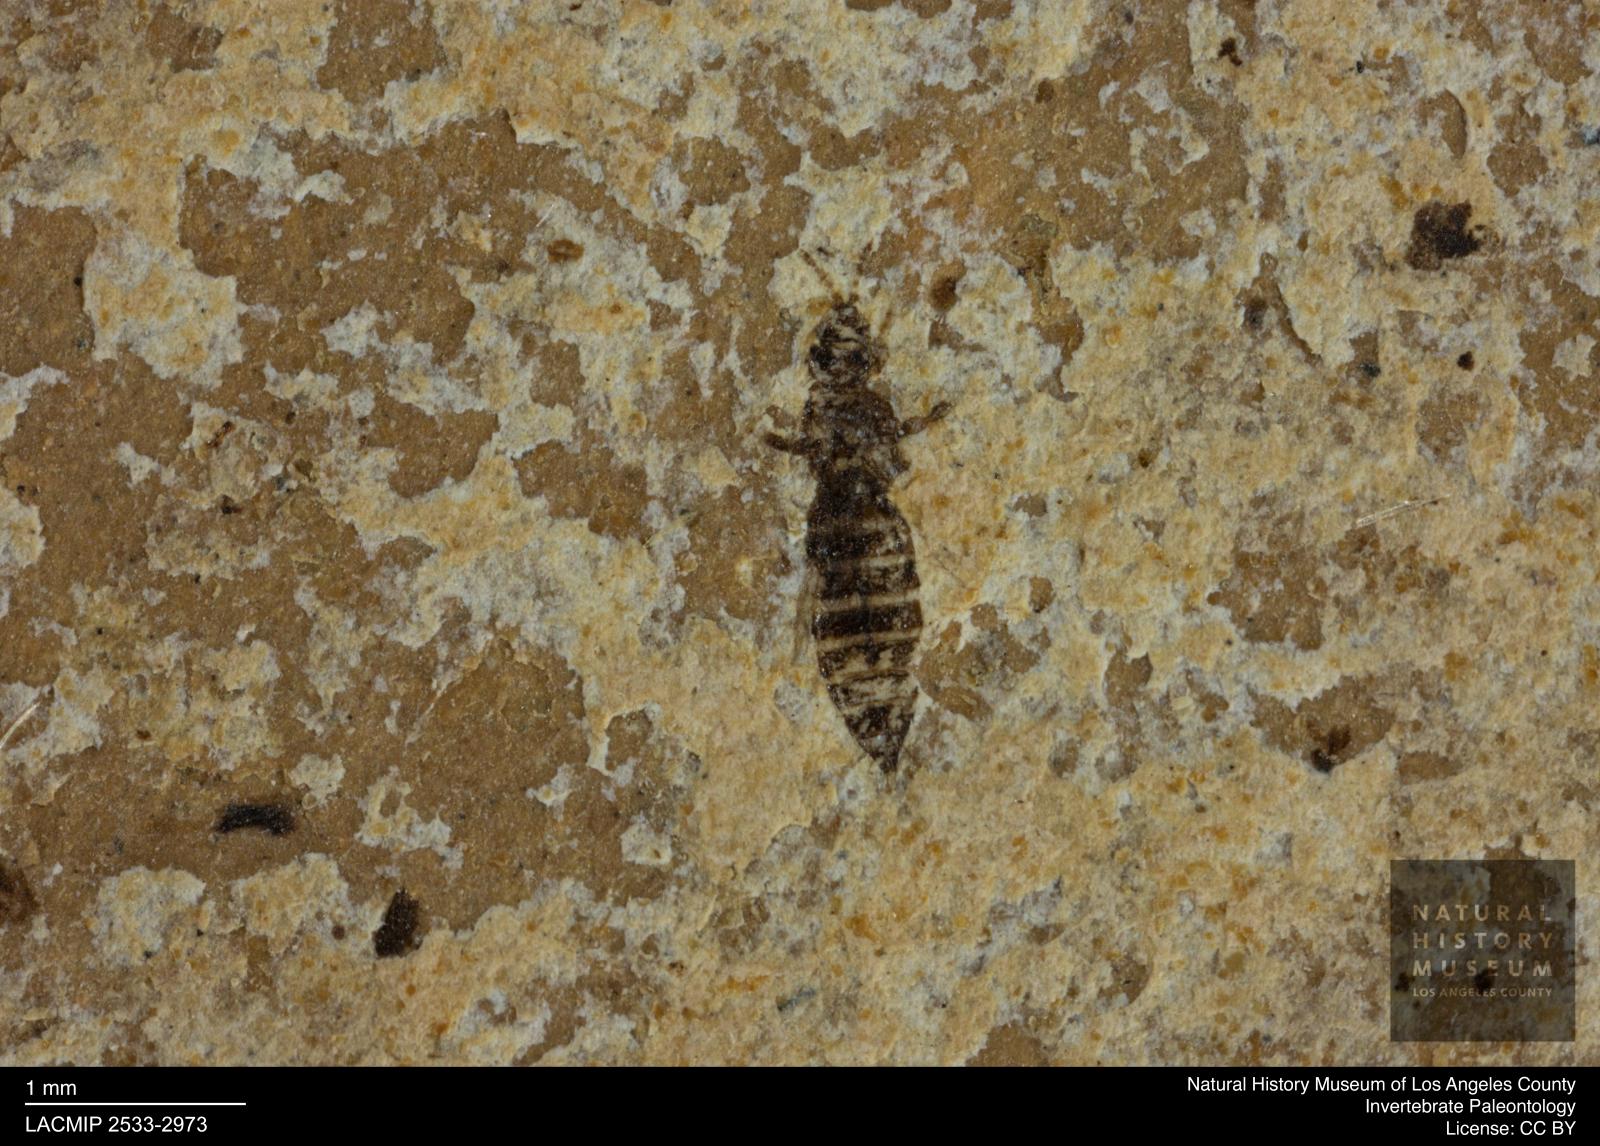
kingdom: Animalia
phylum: Arthropoda
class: Insecta
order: Thysanoptera
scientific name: Thysanoptera
